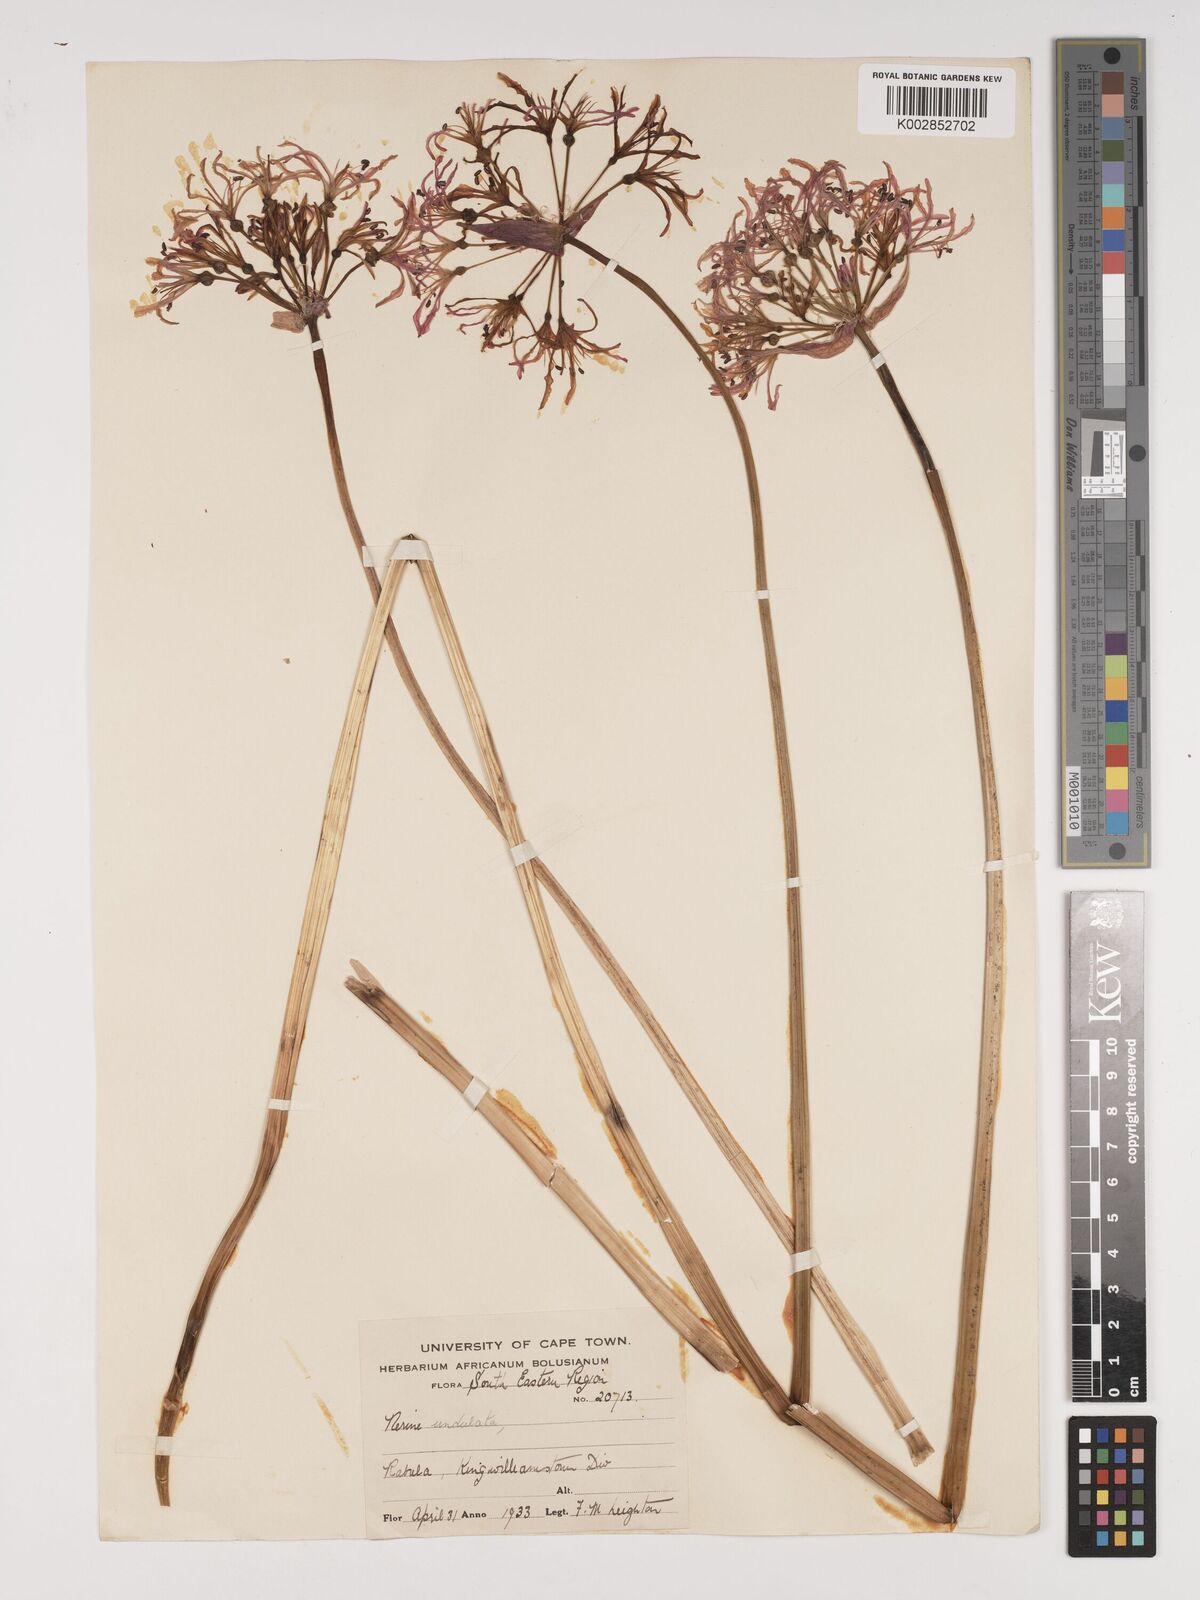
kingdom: Plantae
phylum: Tracheophyta
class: Liliopsida
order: Asparagales
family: Amaryllidaceae
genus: Nerine
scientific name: Nerine undulata
